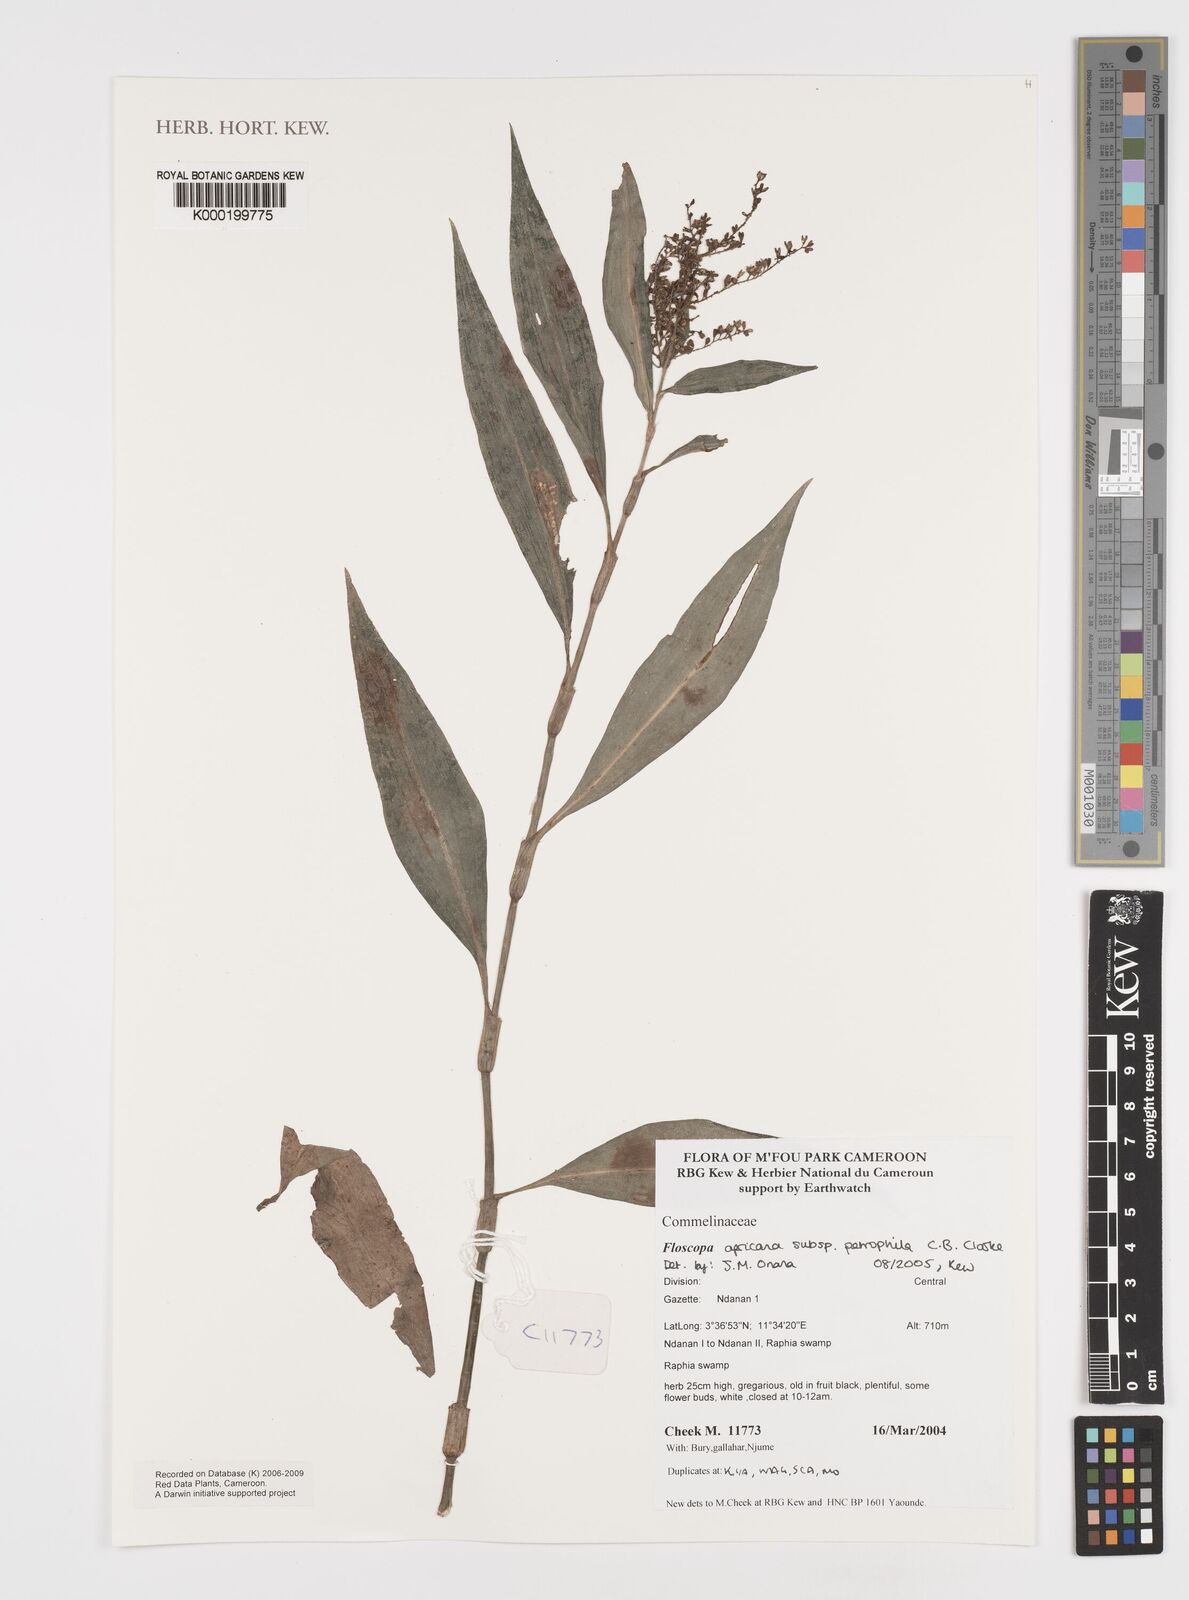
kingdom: Plantae
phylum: Tracheophyta
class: Liliopsida
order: Commelinales
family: Commelinaceae
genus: Floscopa
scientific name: Floscopa africana
